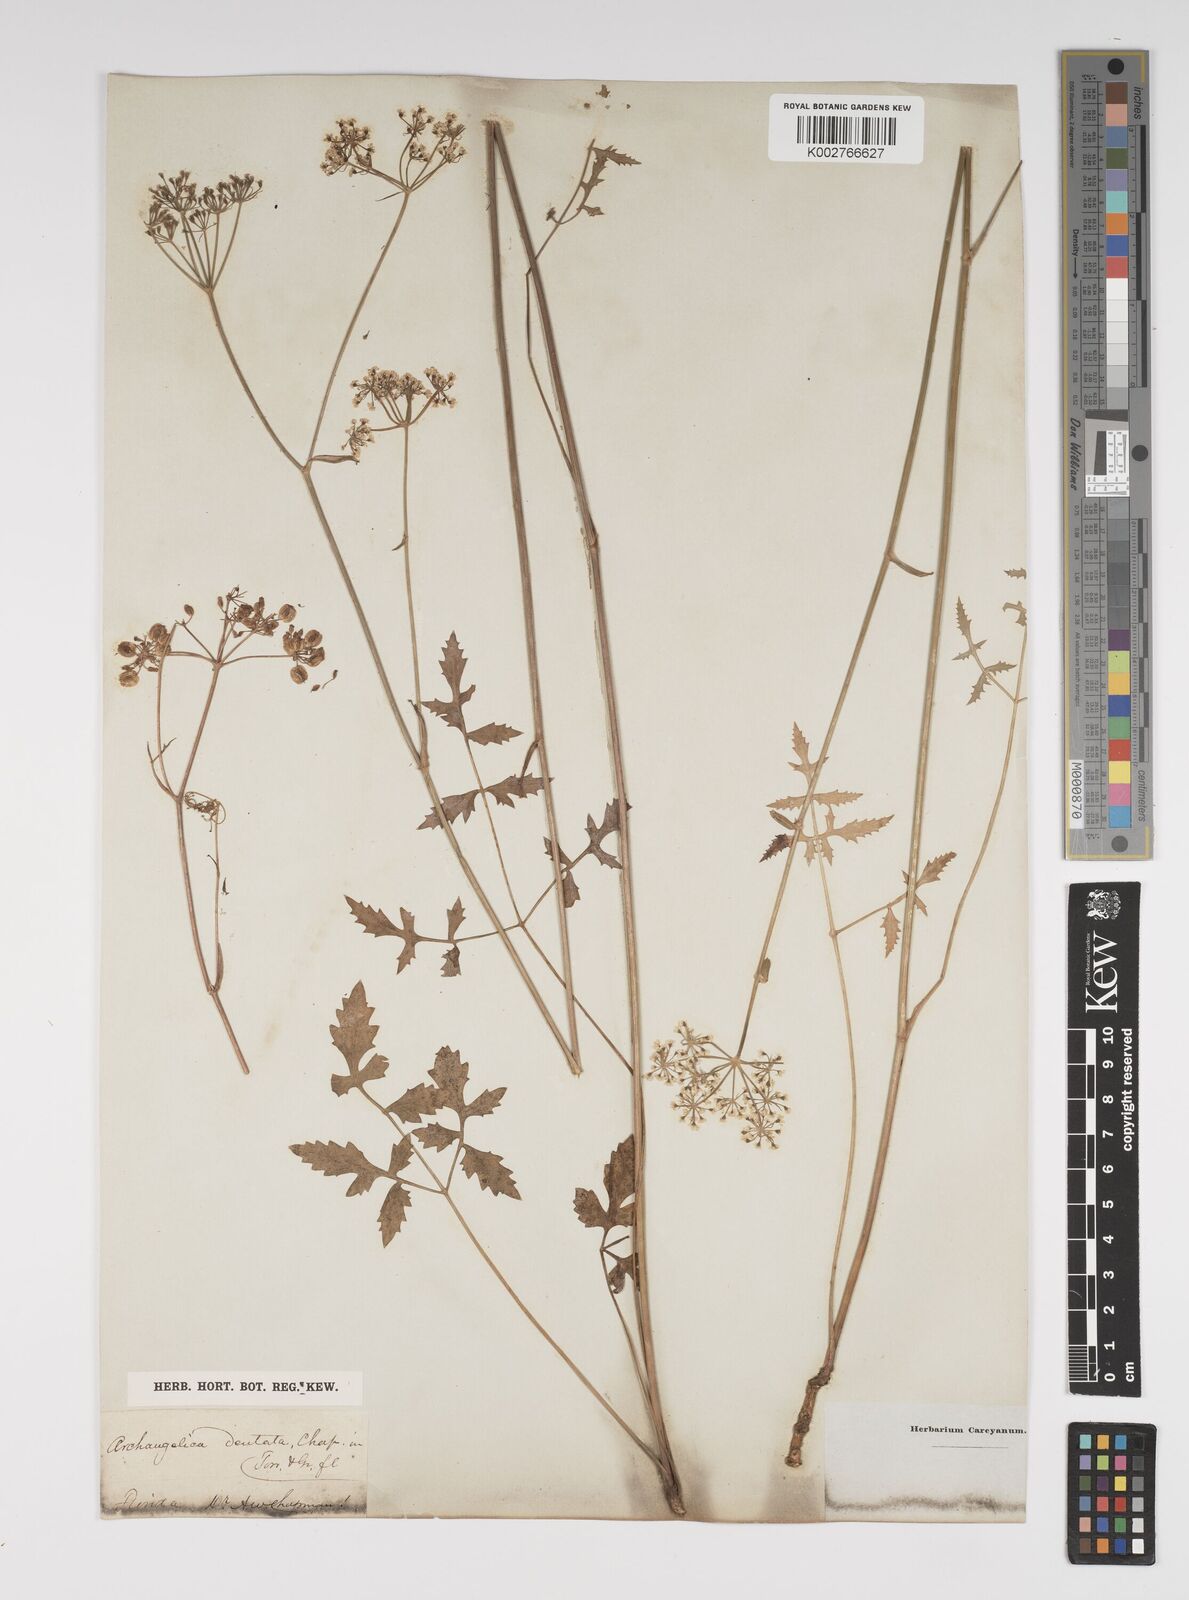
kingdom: Plantae
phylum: Tracheophyta
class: Magnoliopsida
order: Apiales
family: Apiaceae
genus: Angelica
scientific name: Angelica venenosa
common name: Hairy angelica
